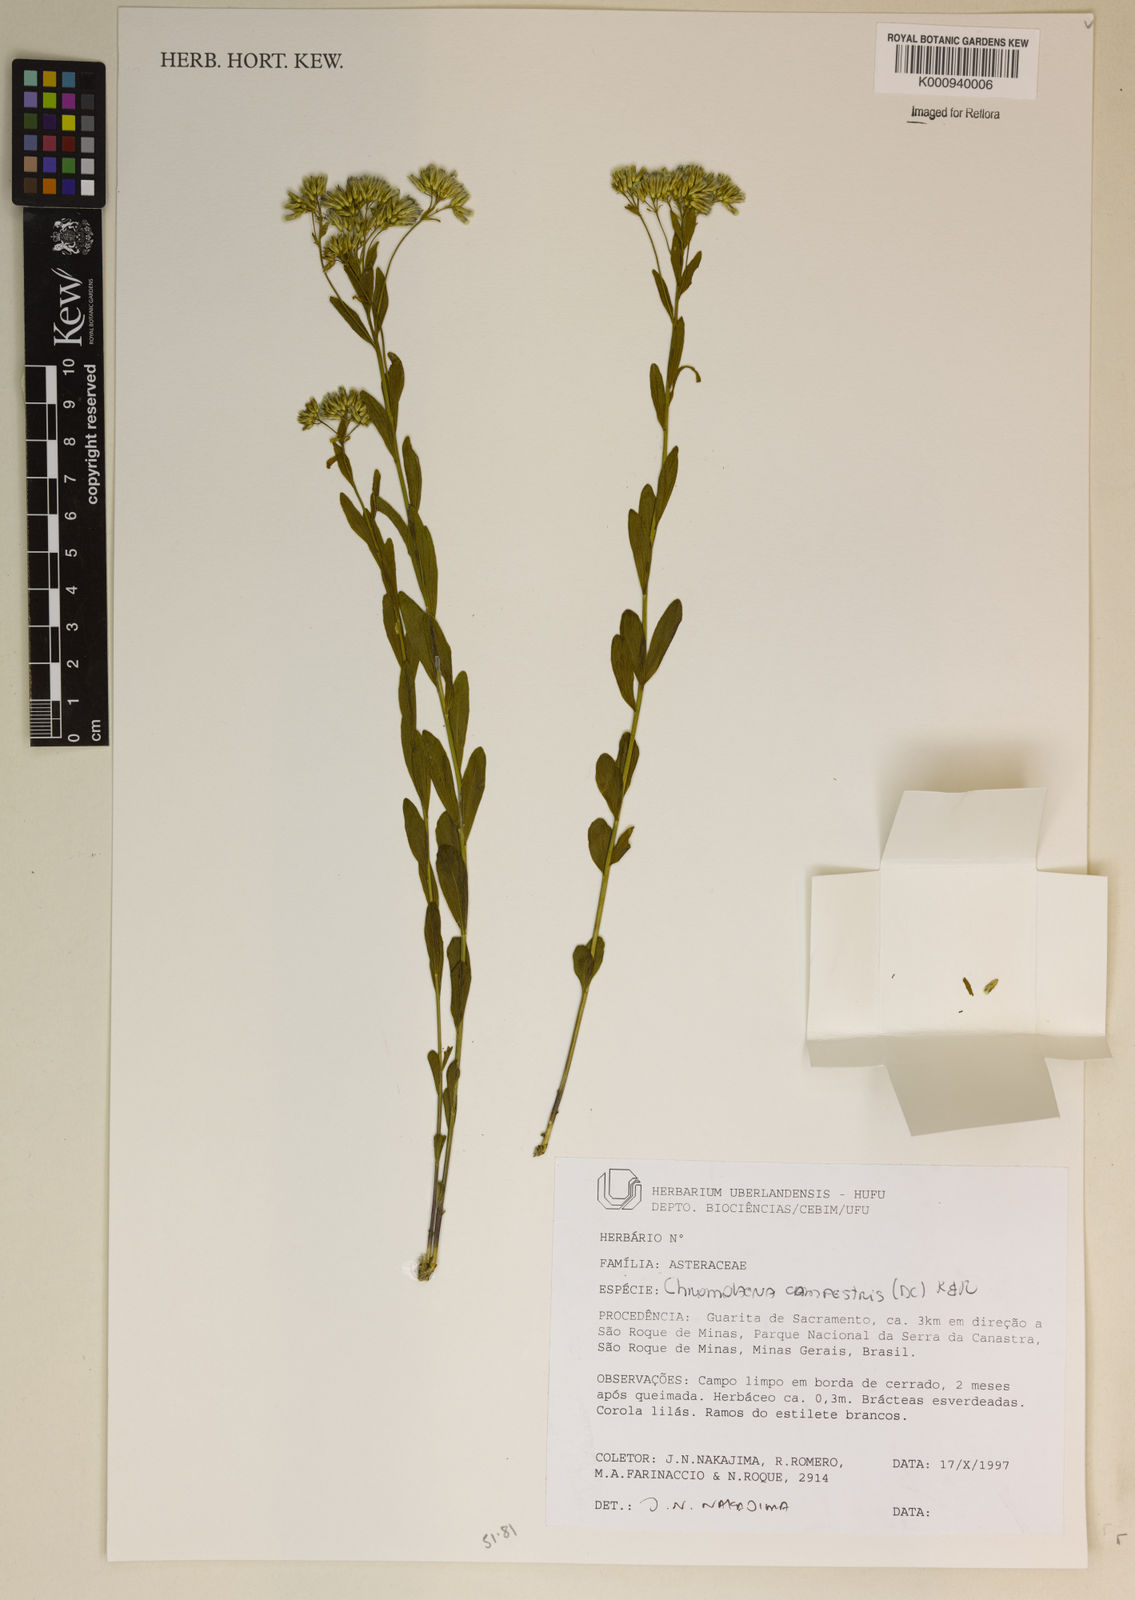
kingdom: Plantae
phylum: Tracheophyta
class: Magnoliopsida
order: Asterales
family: Asteraceae
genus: Chromolaena
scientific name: Chromolaena campestris
